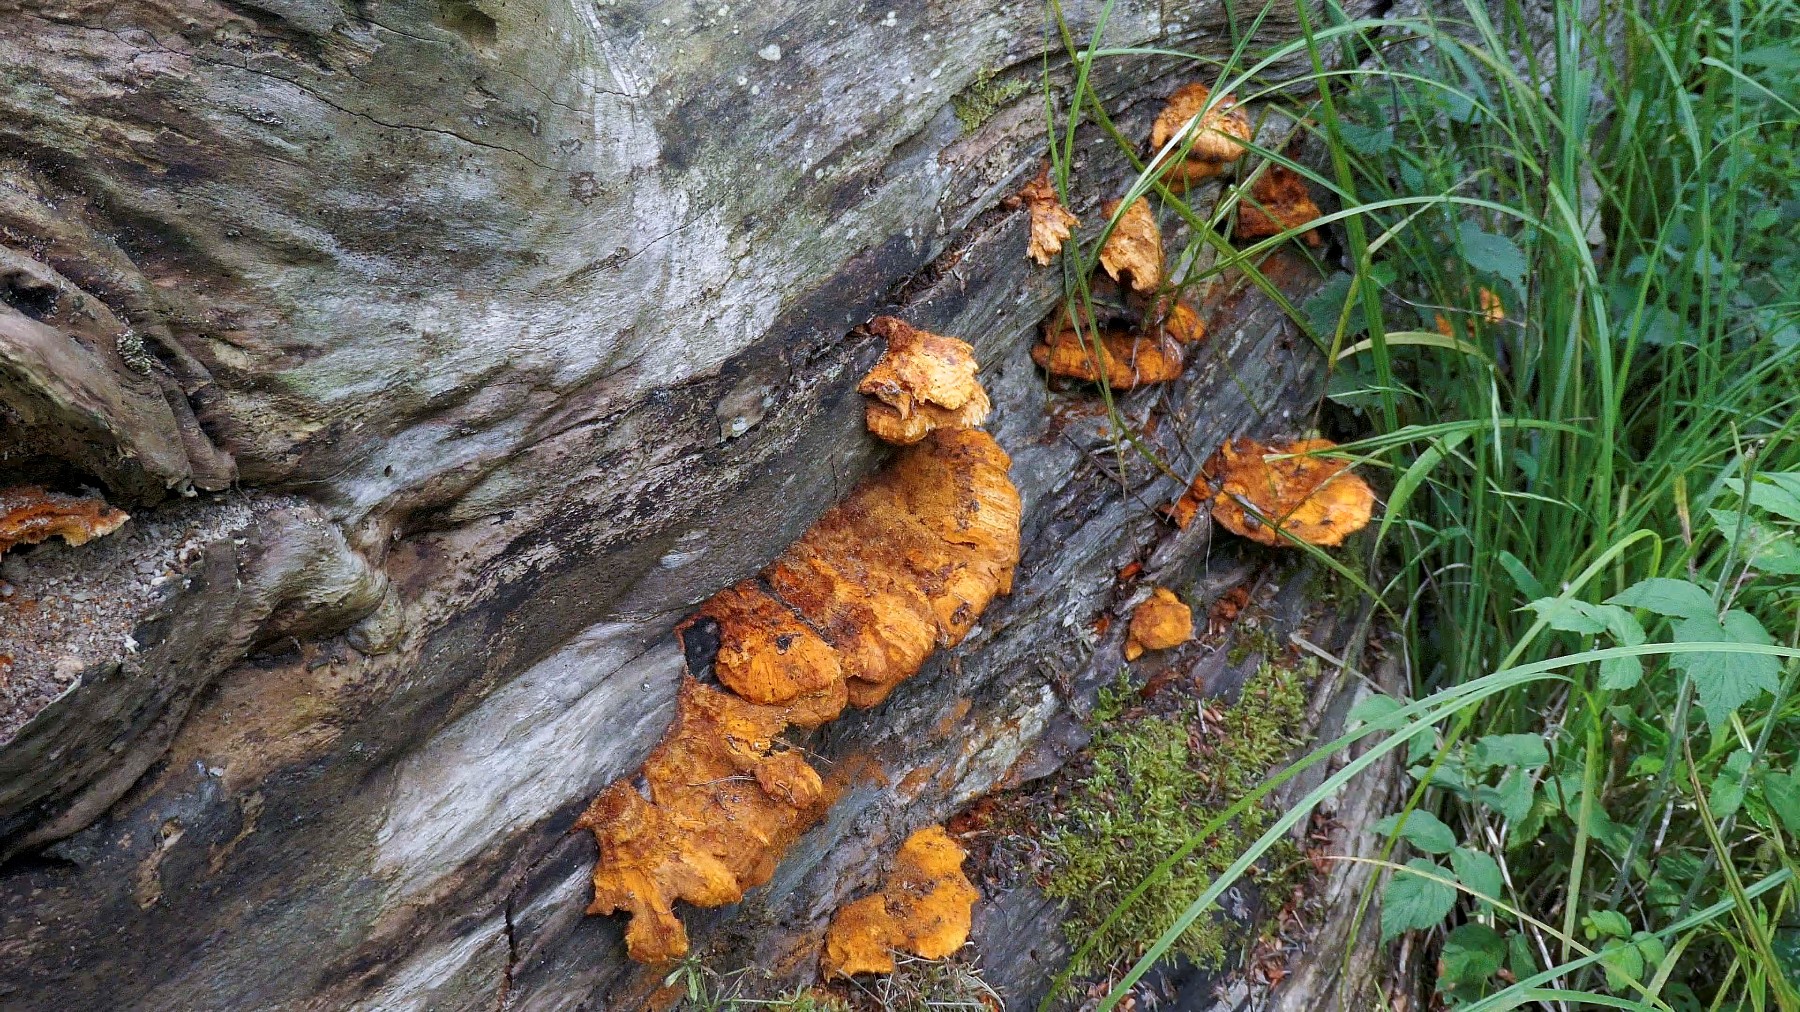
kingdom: Fungi
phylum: Basidiomycota
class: Agaricomycetes
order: Polyporales
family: Pycnoporellaceae
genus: Pycnoporellus
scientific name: Pycnoporellus fulgens
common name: flammeporesvamp
